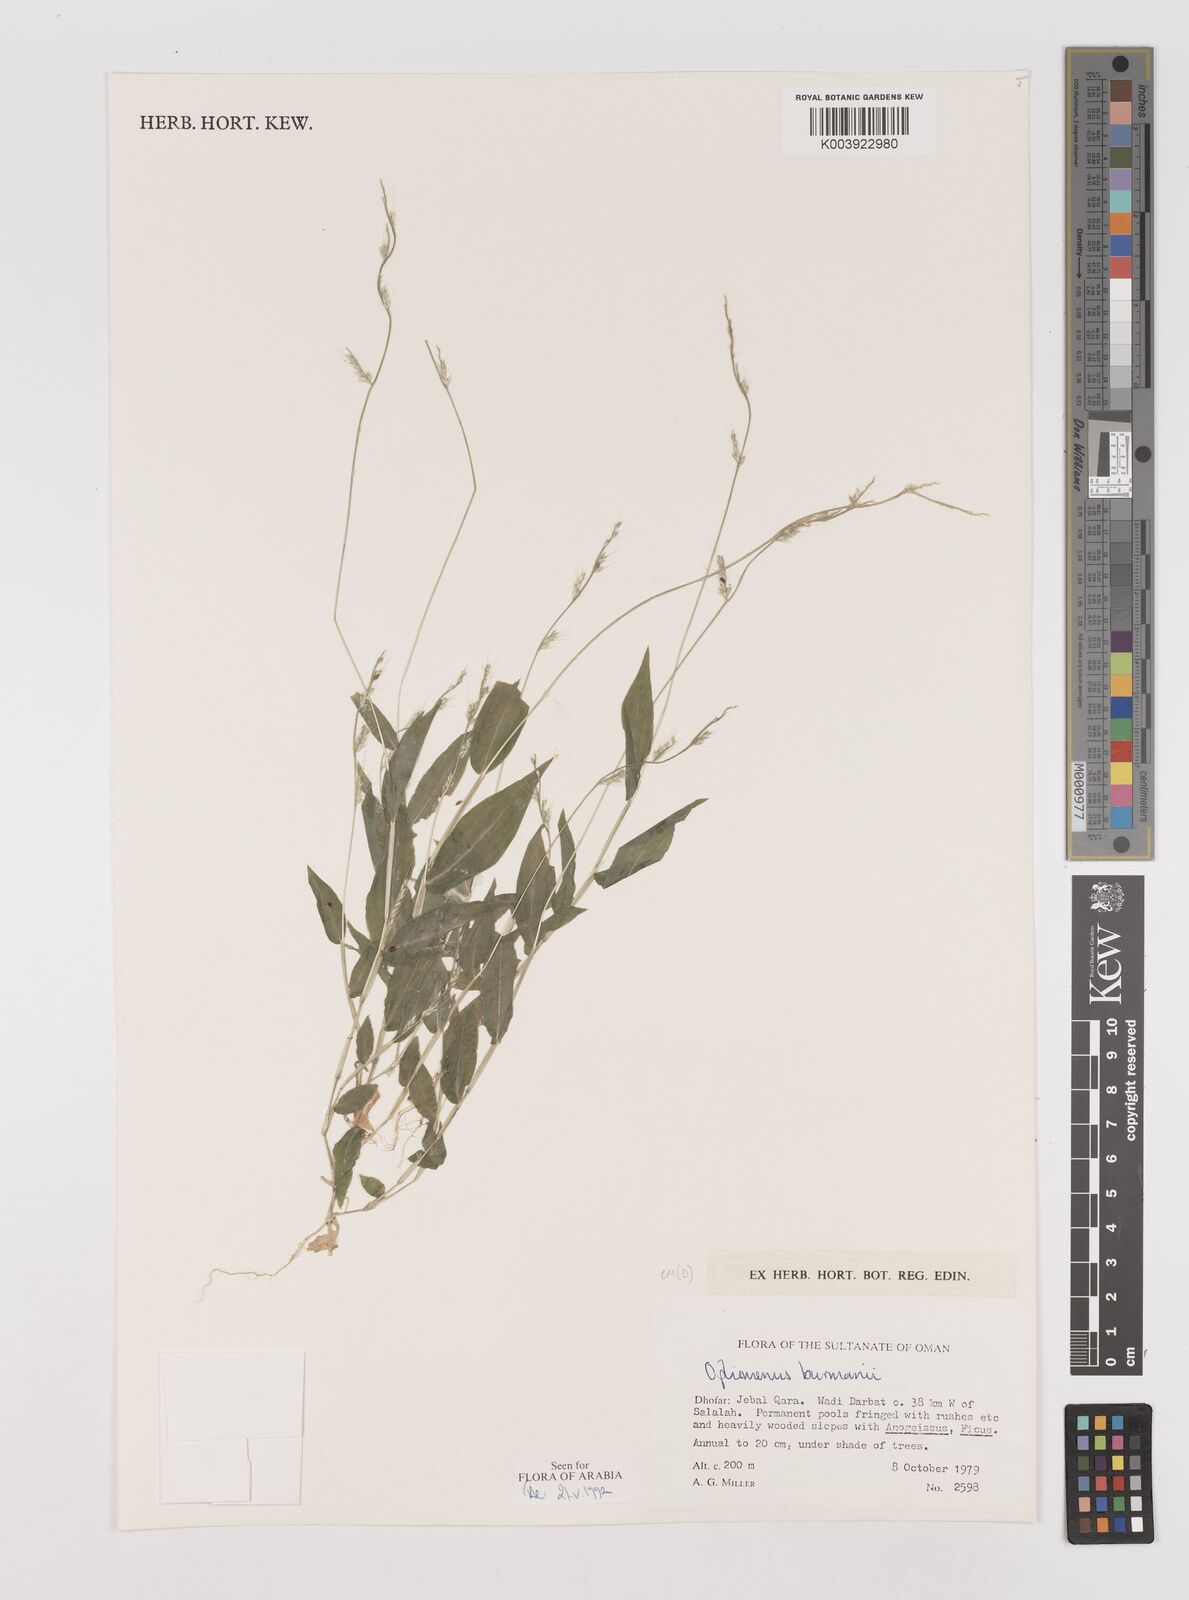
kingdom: Plantae
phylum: Tracheophyta
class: Liliopsida
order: Poales
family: Poaceae
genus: Oplismenus
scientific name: Oplismenus burmanni
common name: Burmann's basketgrass
